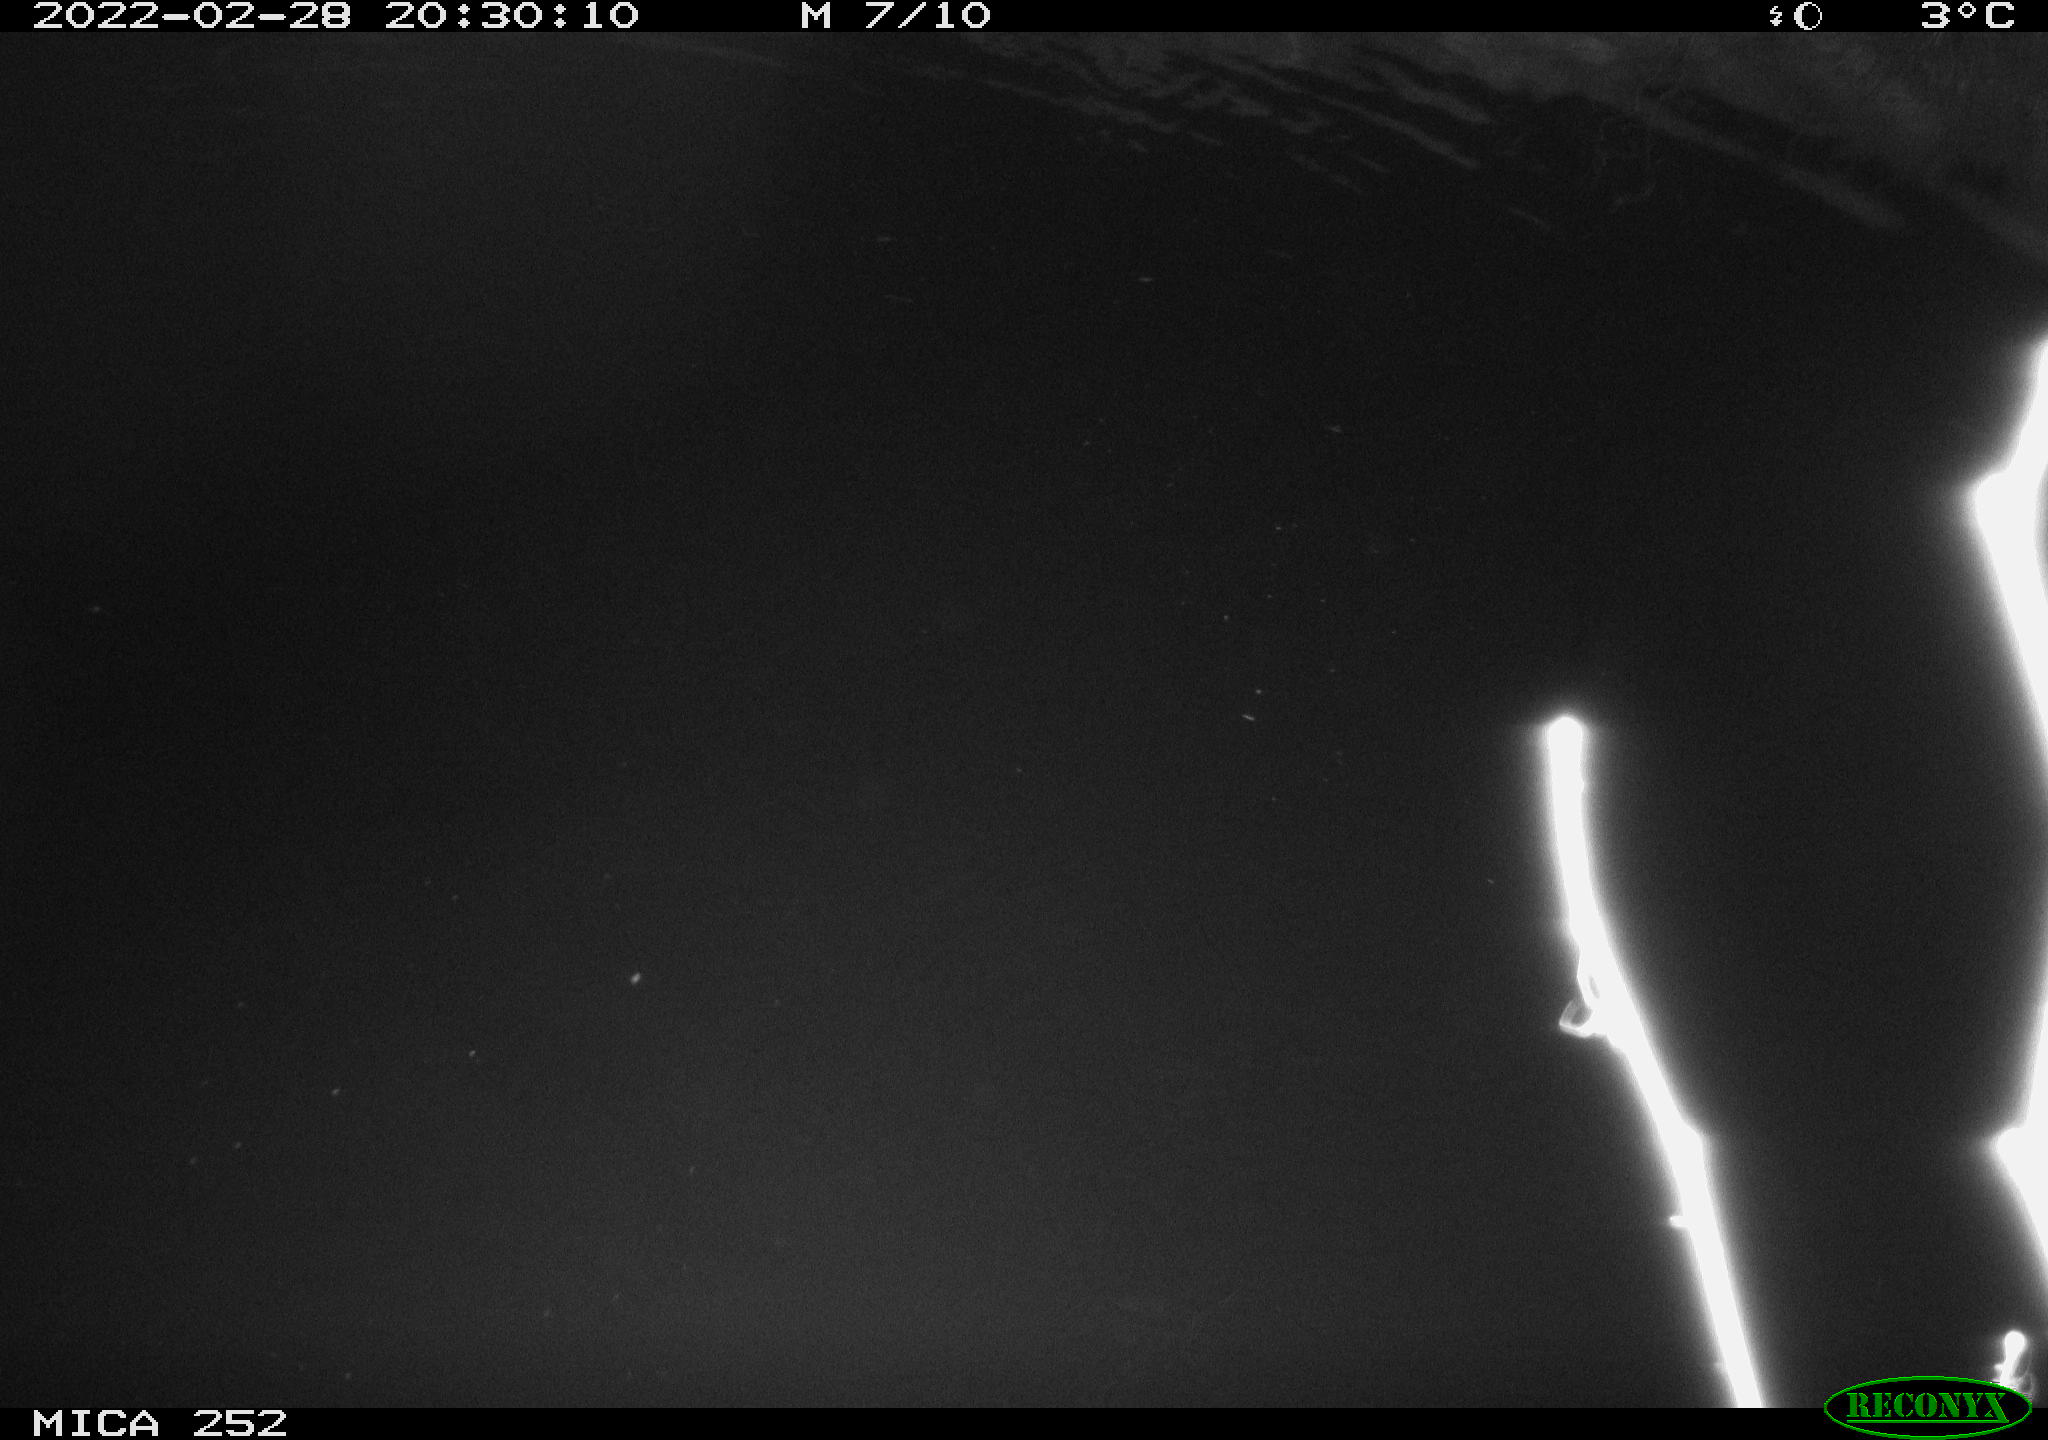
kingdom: Animalia
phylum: Chordata
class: Mammalia
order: Rodentia
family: Castoridae
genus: Castor
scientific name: Castor fiber
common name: Eurasian beaver
